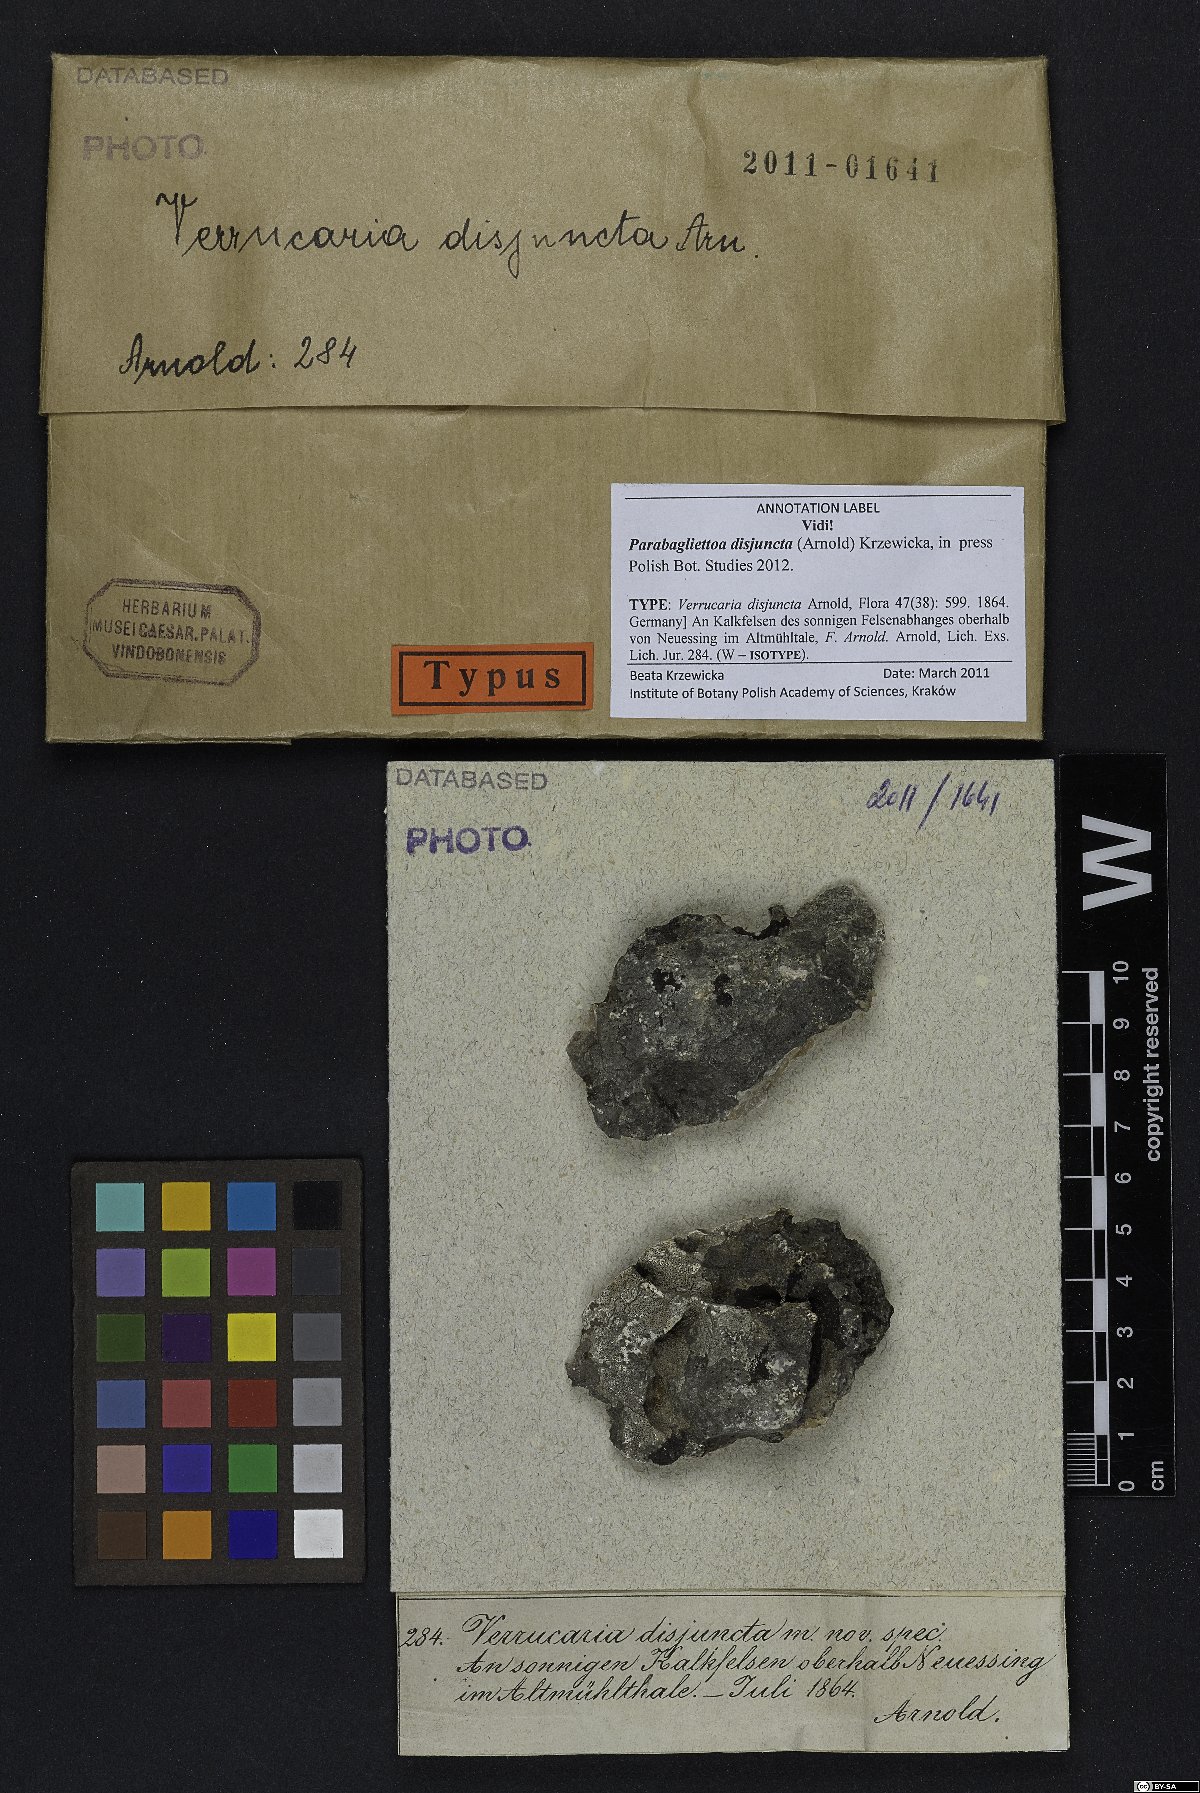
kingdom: Fungi
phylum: Ascomycota
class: Eurotiomycetes
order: Verrucariales
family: Verrucariaceae
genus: Parabagliettoa
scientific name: Parabagliettoa disjuncta
